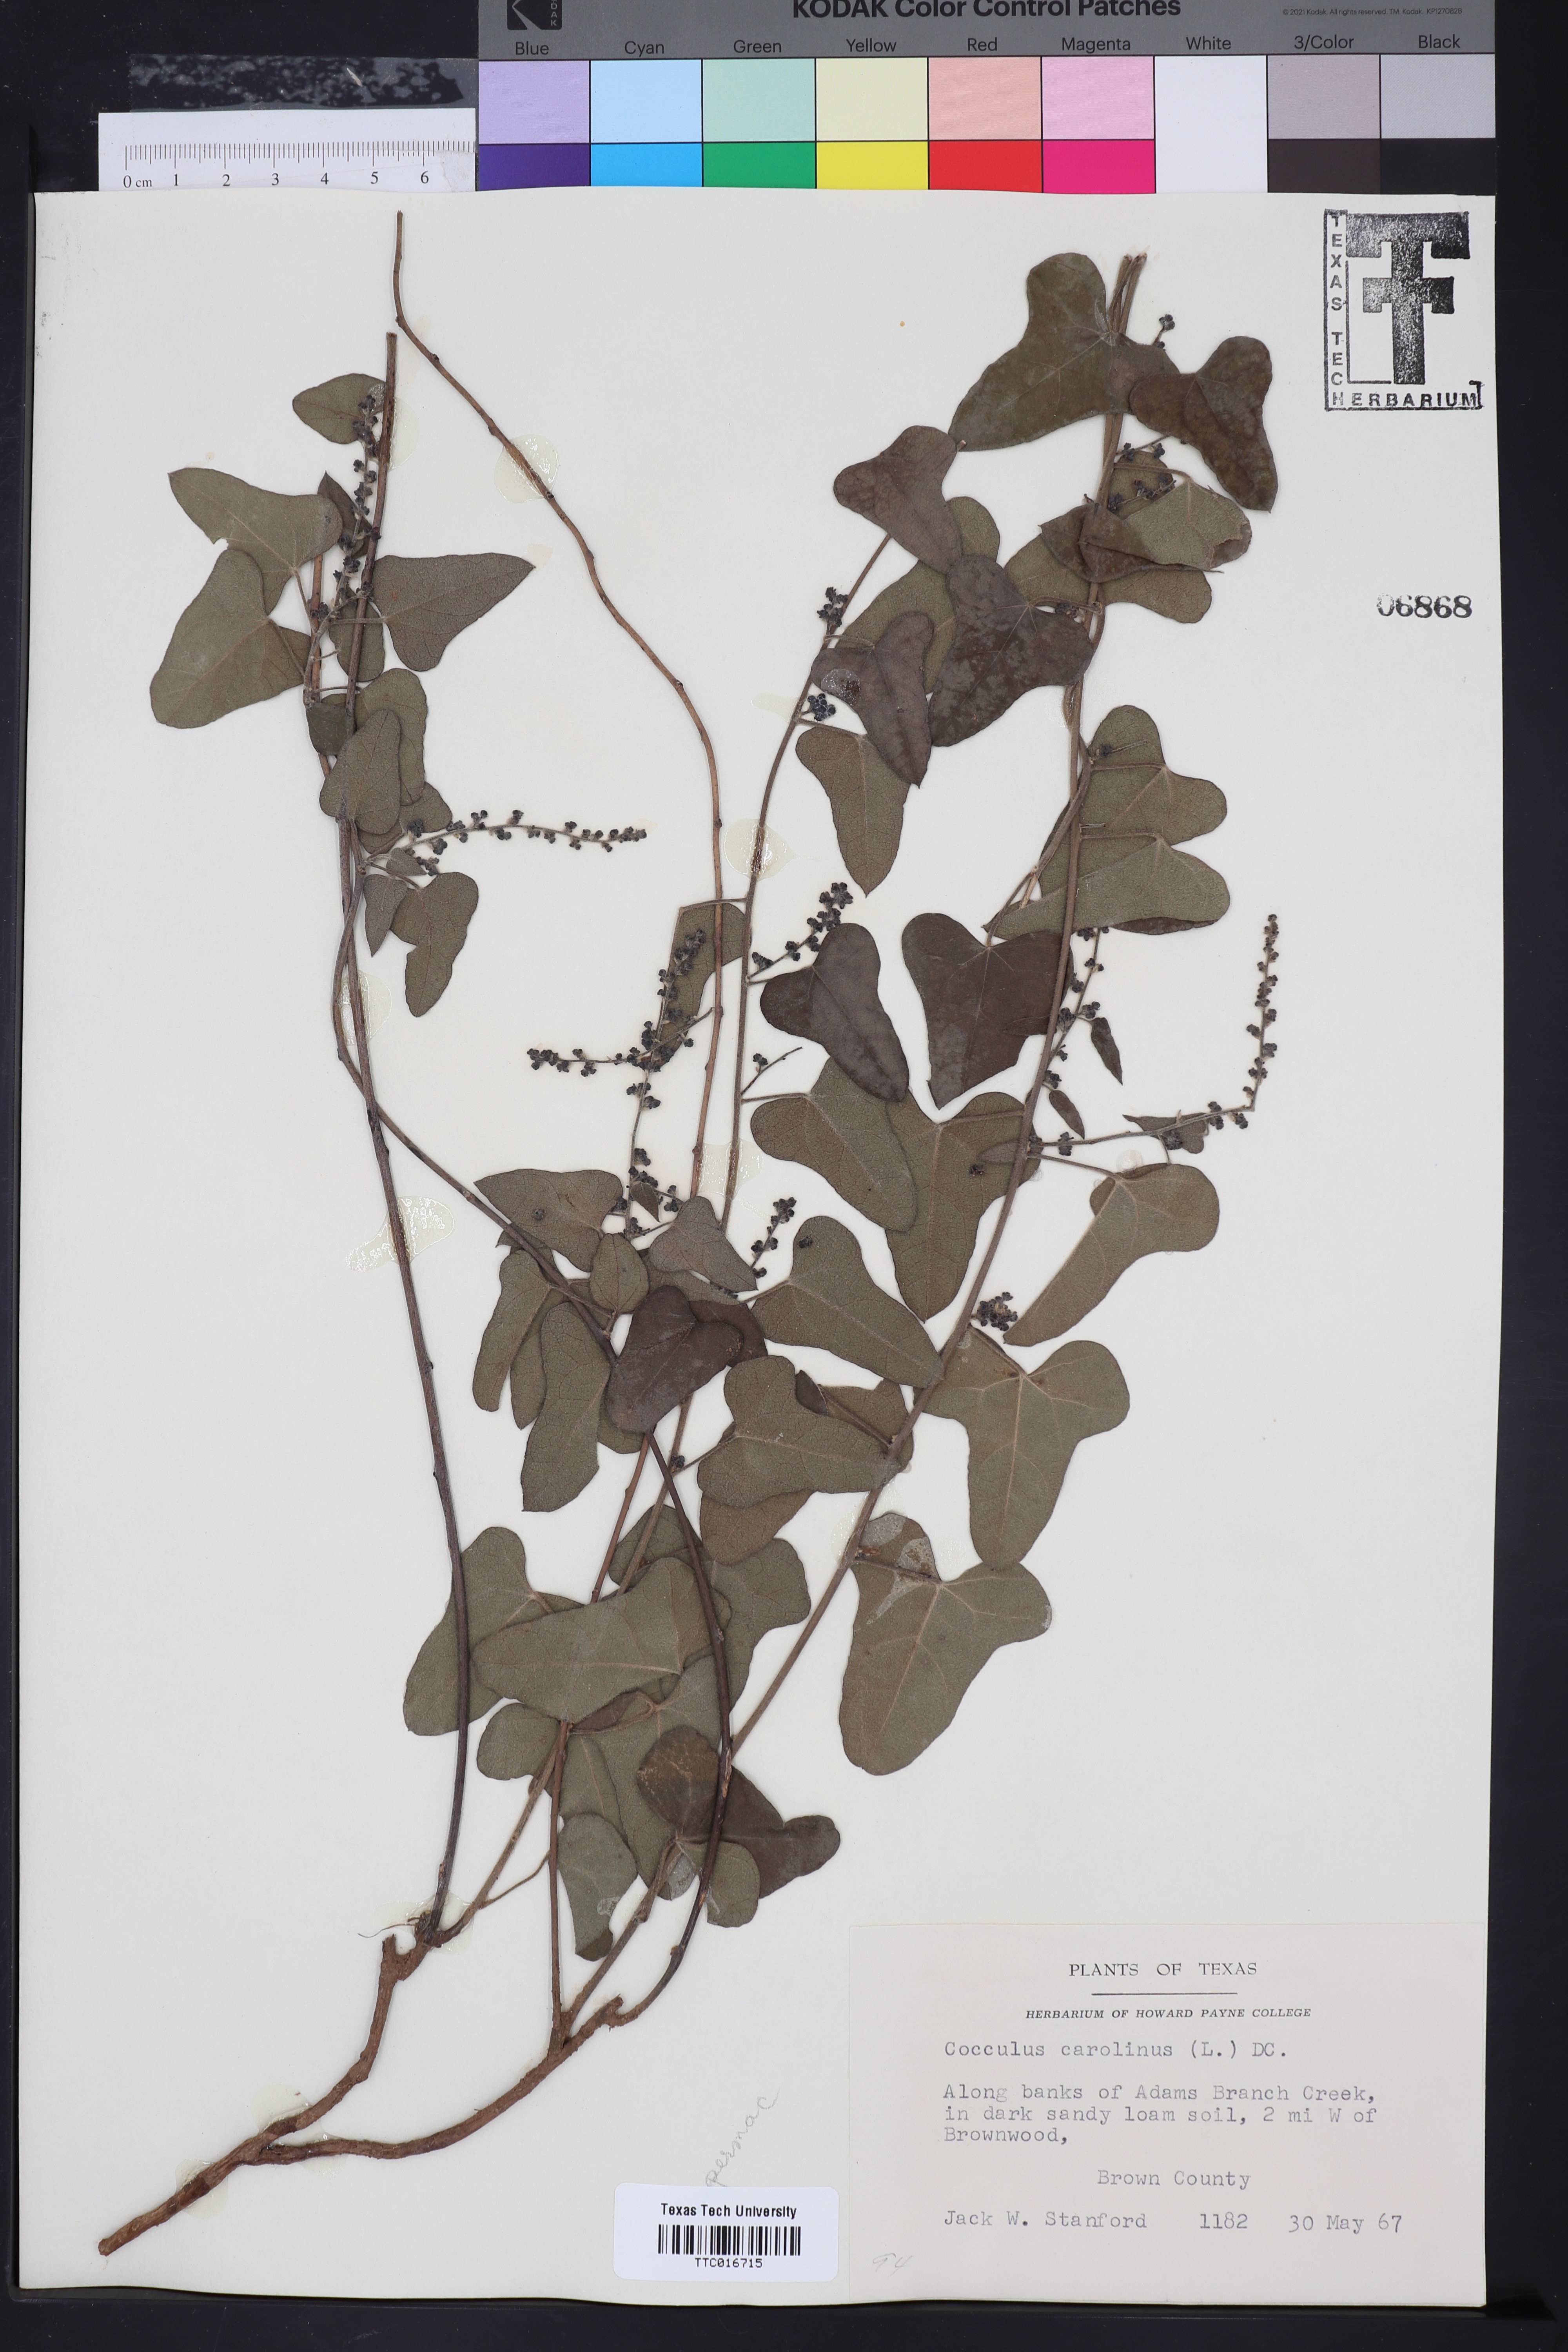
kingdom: Plantae
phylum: Tracheophyta
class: Magnoliopsida
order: Ranunculales
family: Menispermaceae
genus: Cocculus
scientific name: Cocculus carolinus
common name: Carolina moonseed
